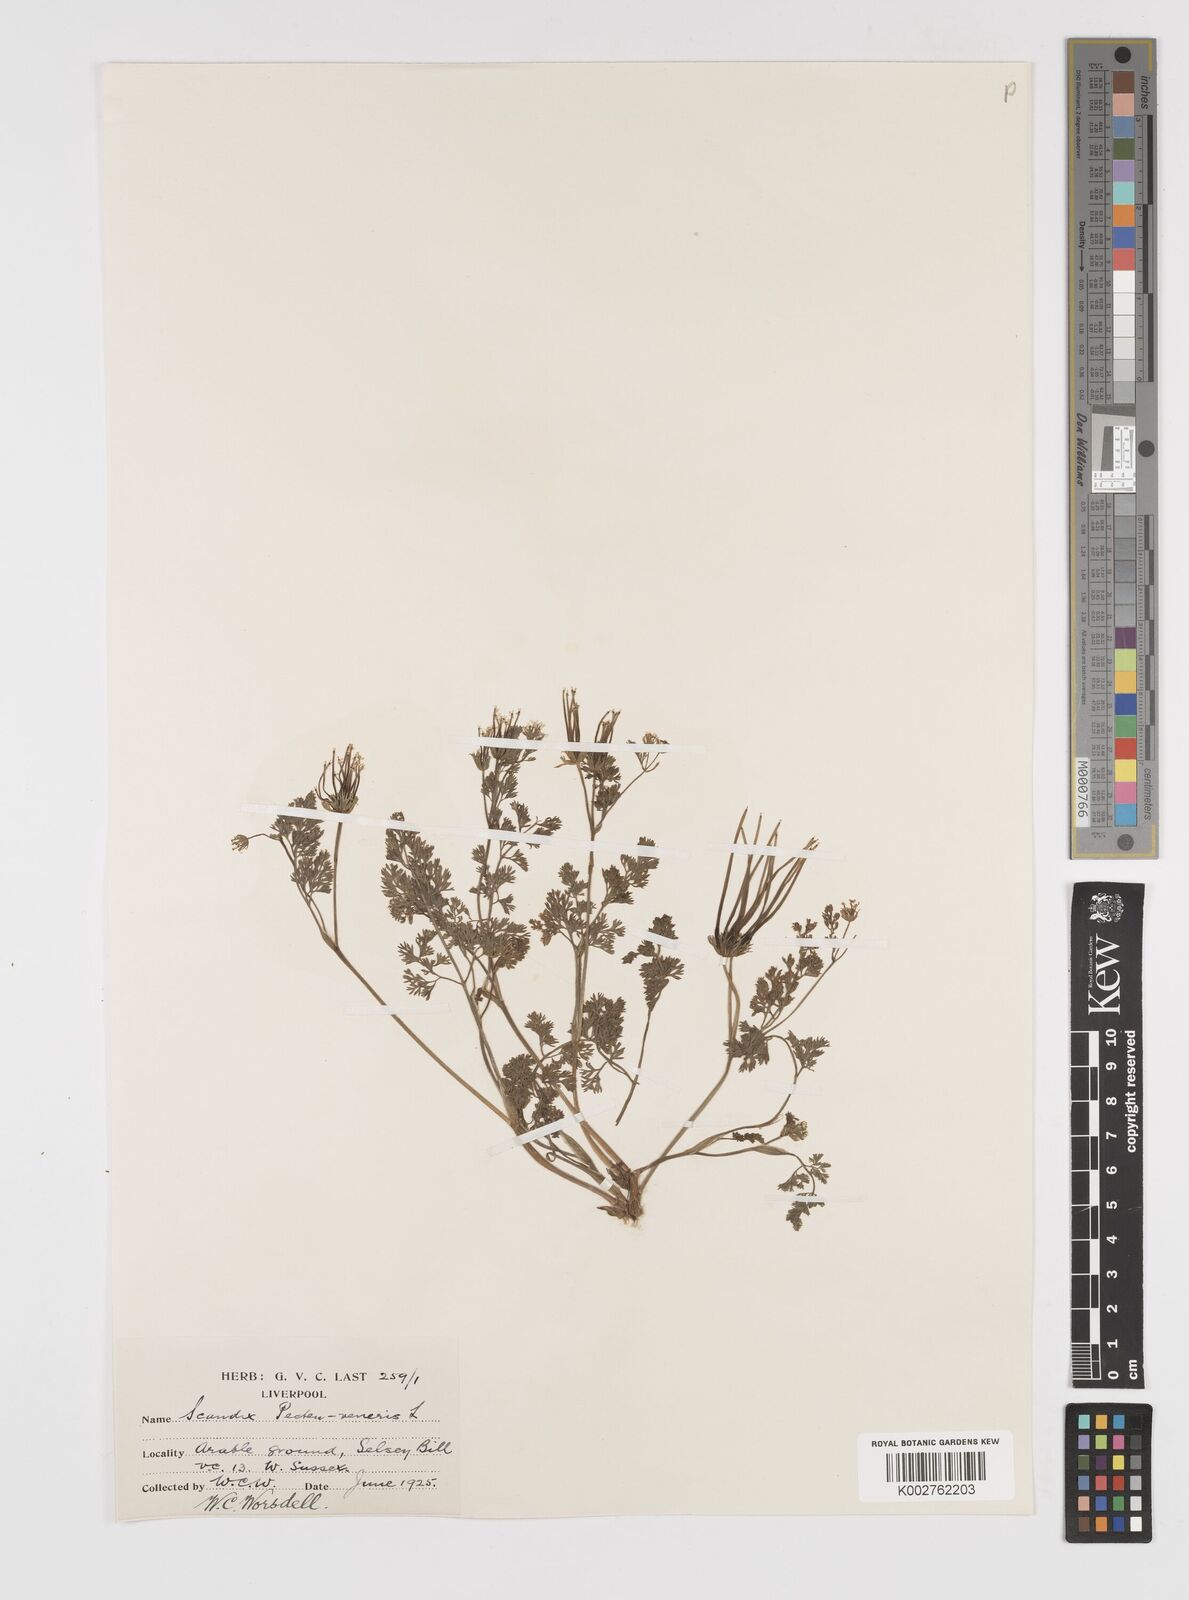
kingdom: Plantae
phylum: Tracheophyta
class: Magnoliopsida
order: Apiales
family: Apiaceae
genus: Scandix
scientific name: Scandix pecten-veneris
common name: Shepherd's-needle
